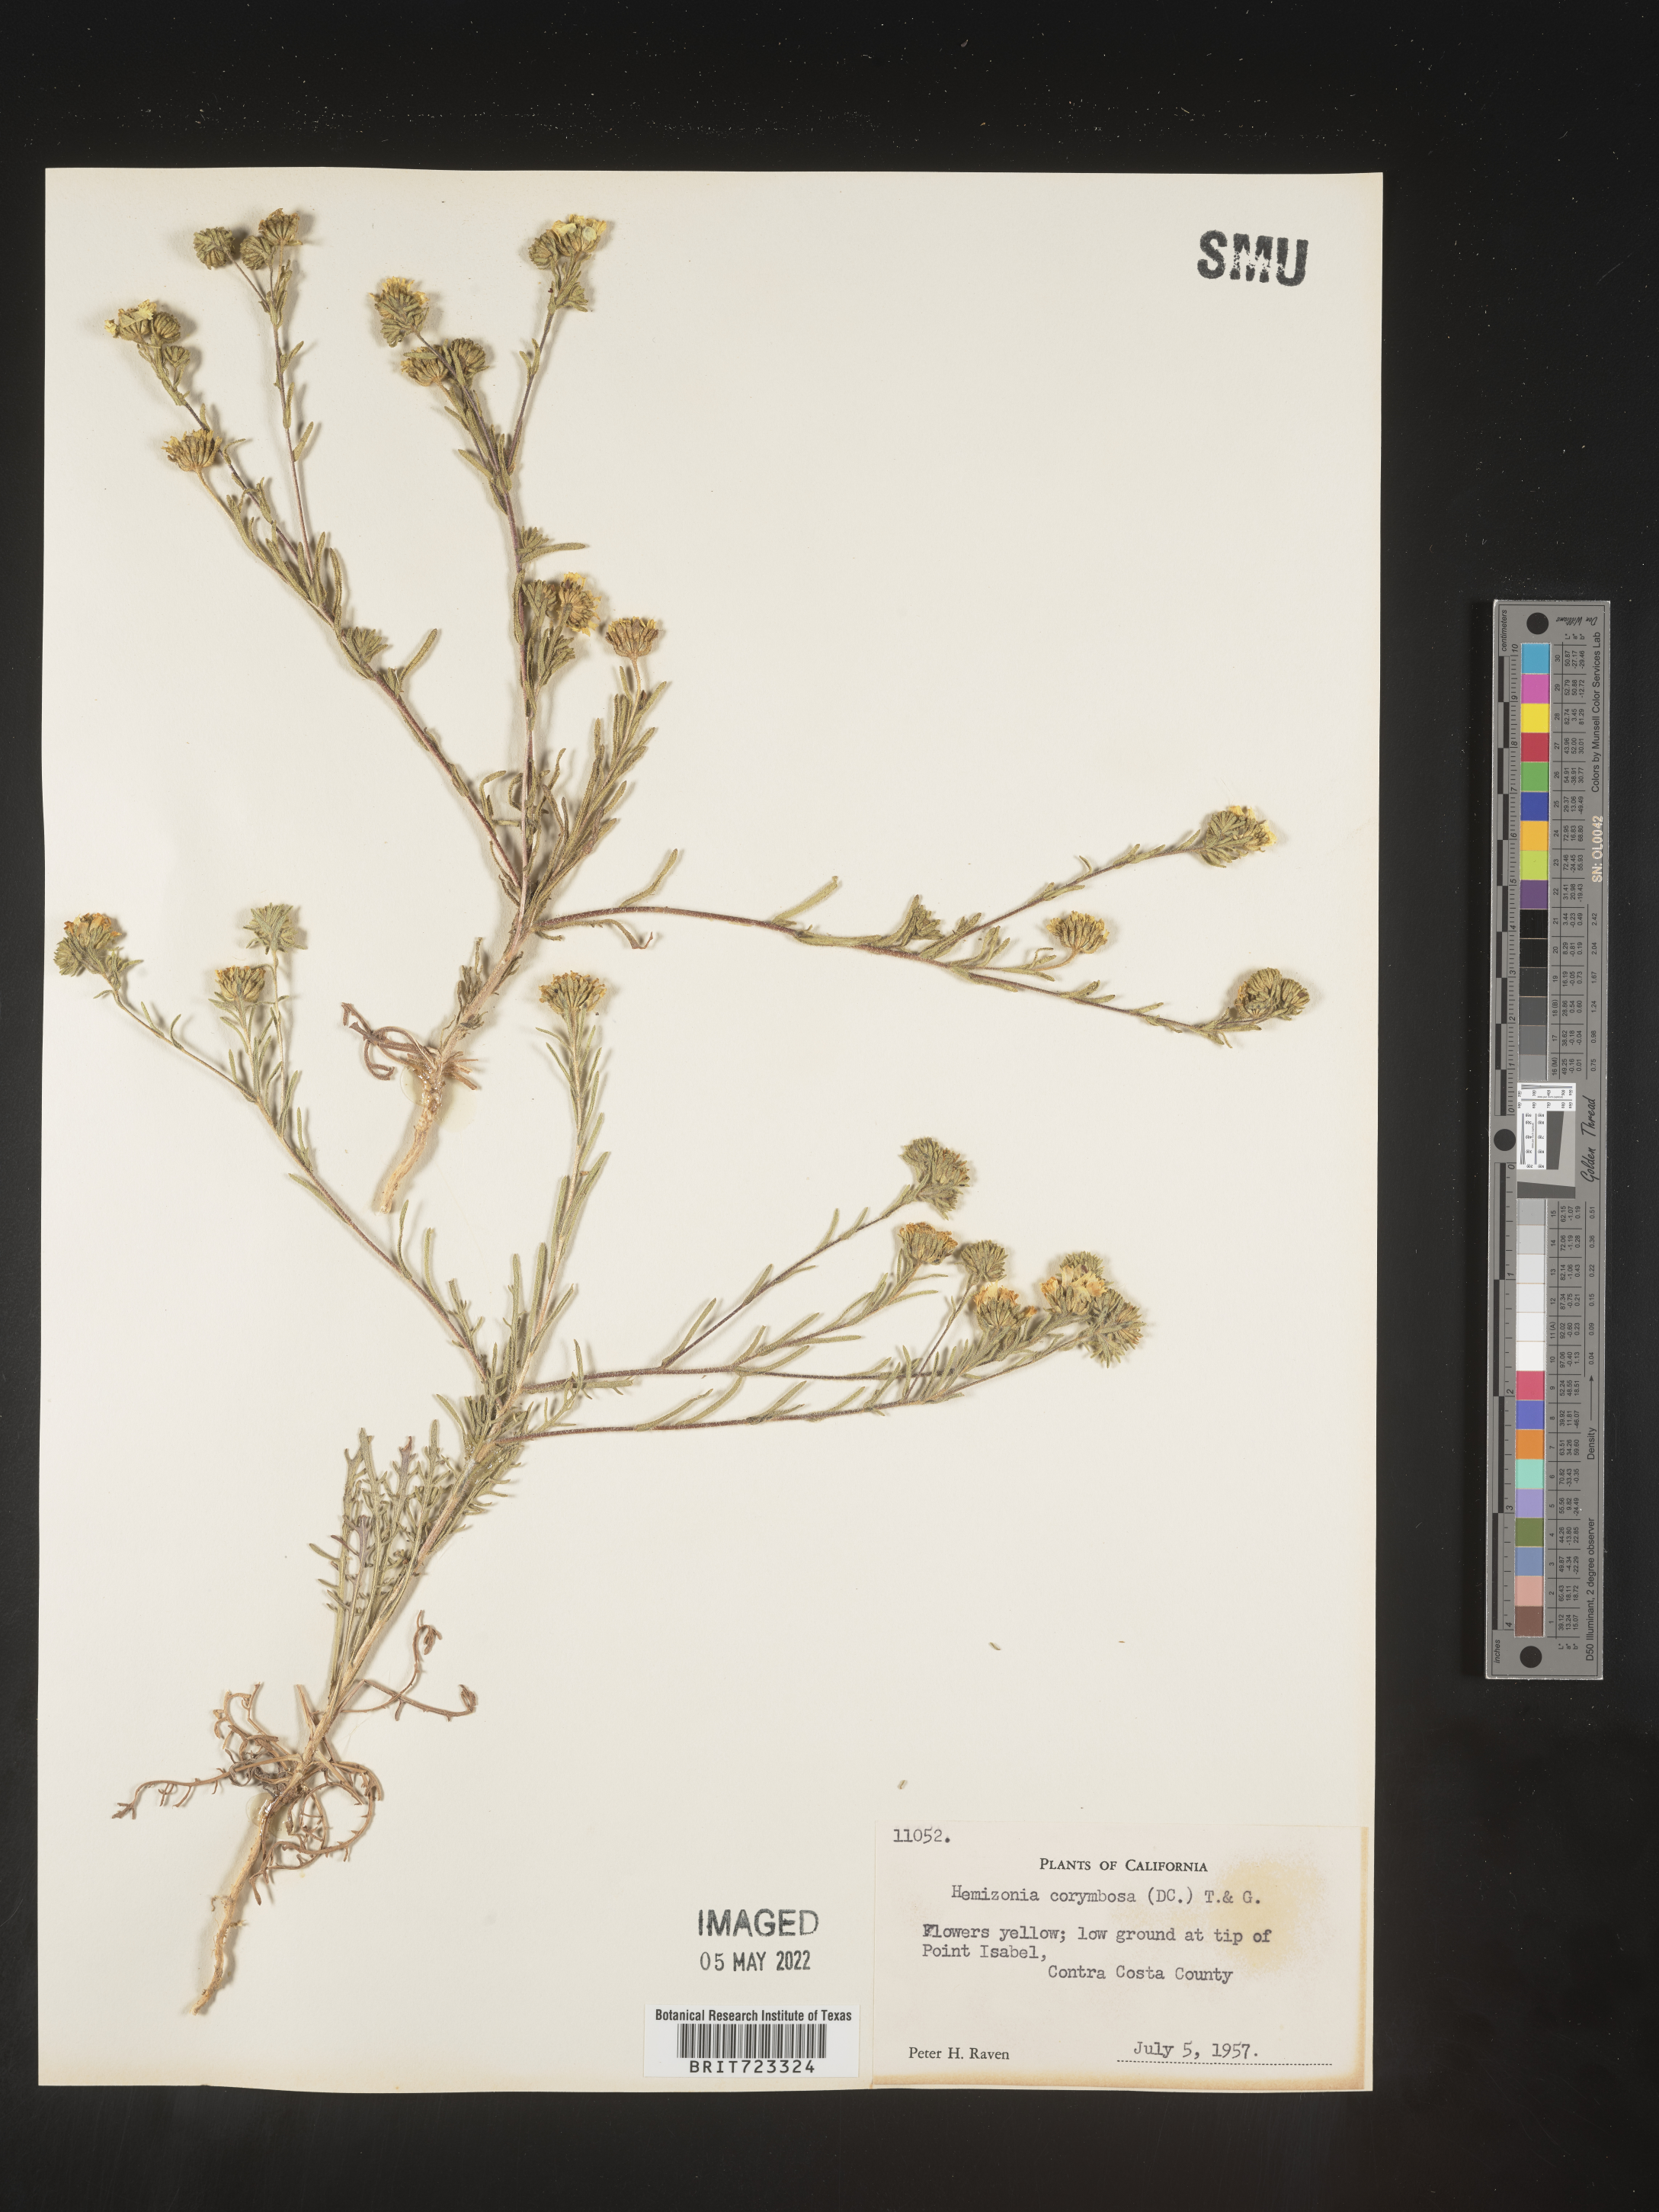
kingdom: Plantae
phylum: Tracheophyta
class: Magnoliopsida
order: Asterales
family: Asteraceae
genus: Hemizonia
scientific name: Hemizonia
